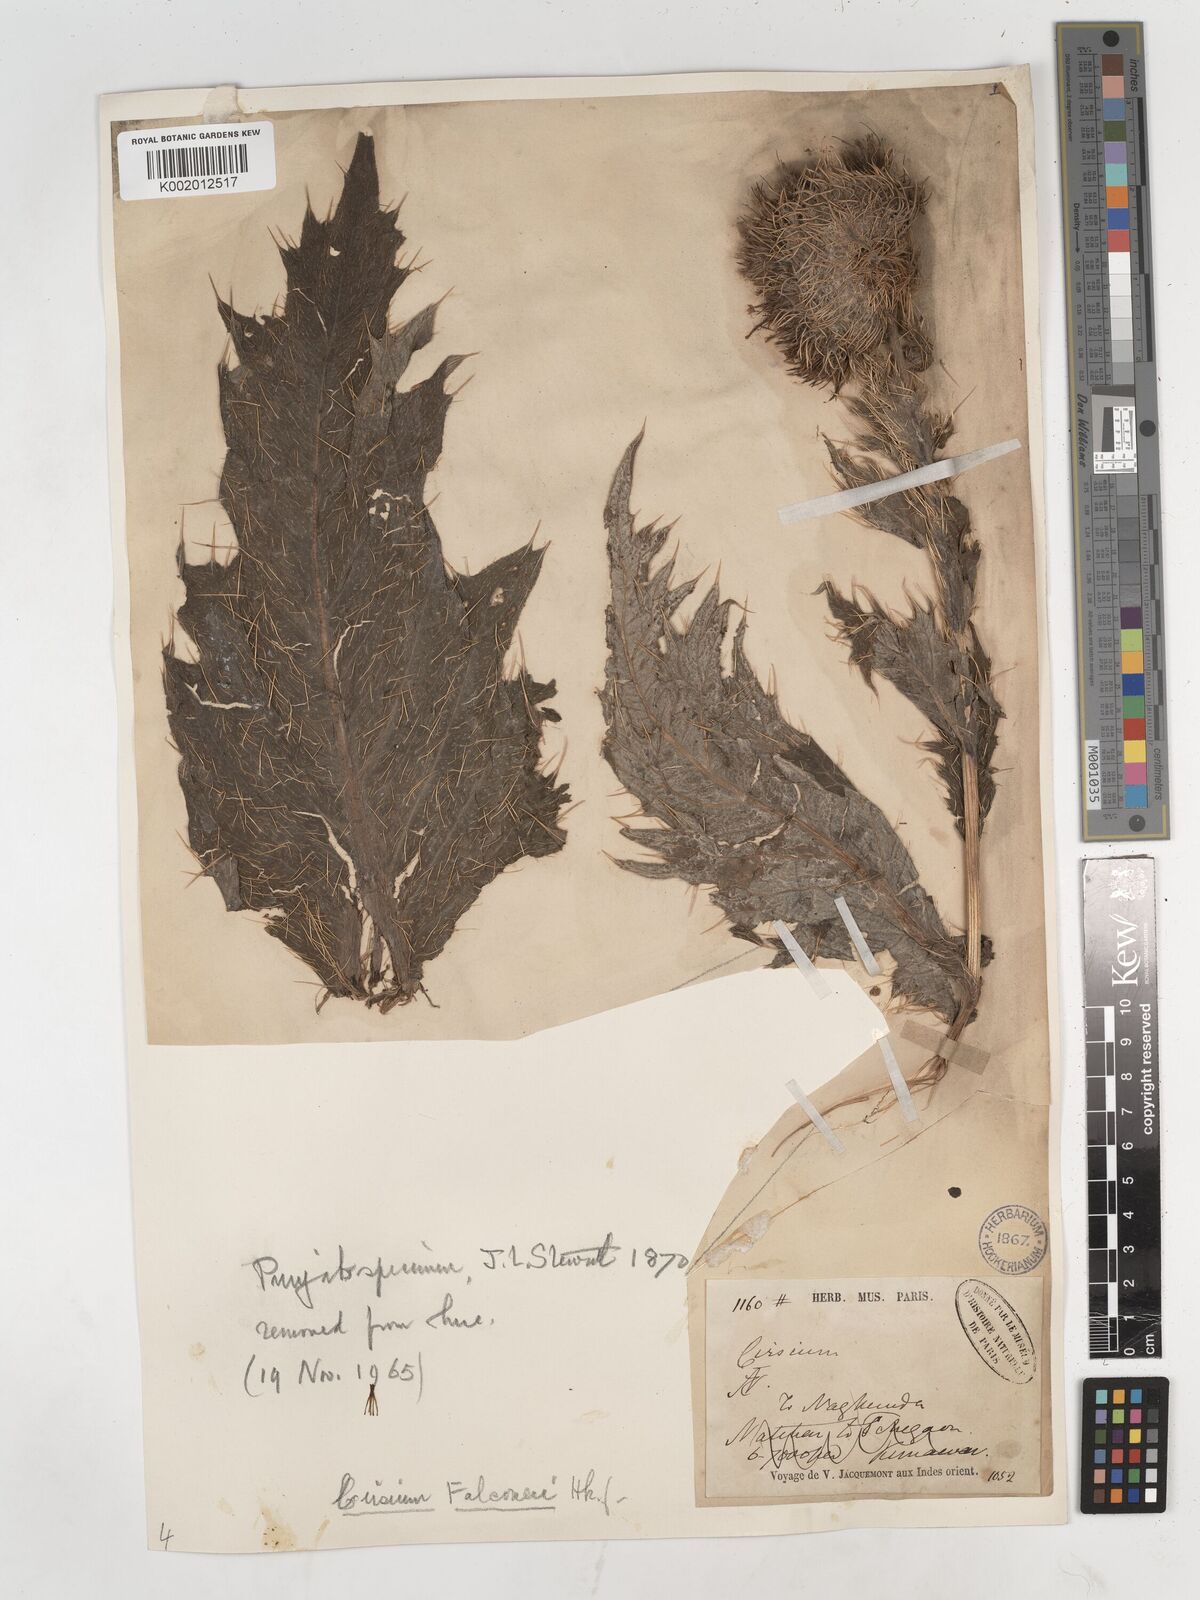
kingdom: Plantae
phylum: Tracheophyta
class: Magnoliopsida
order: Asterales
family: Asteraceae
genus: Cirsium
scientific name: Cirsium falconeri
